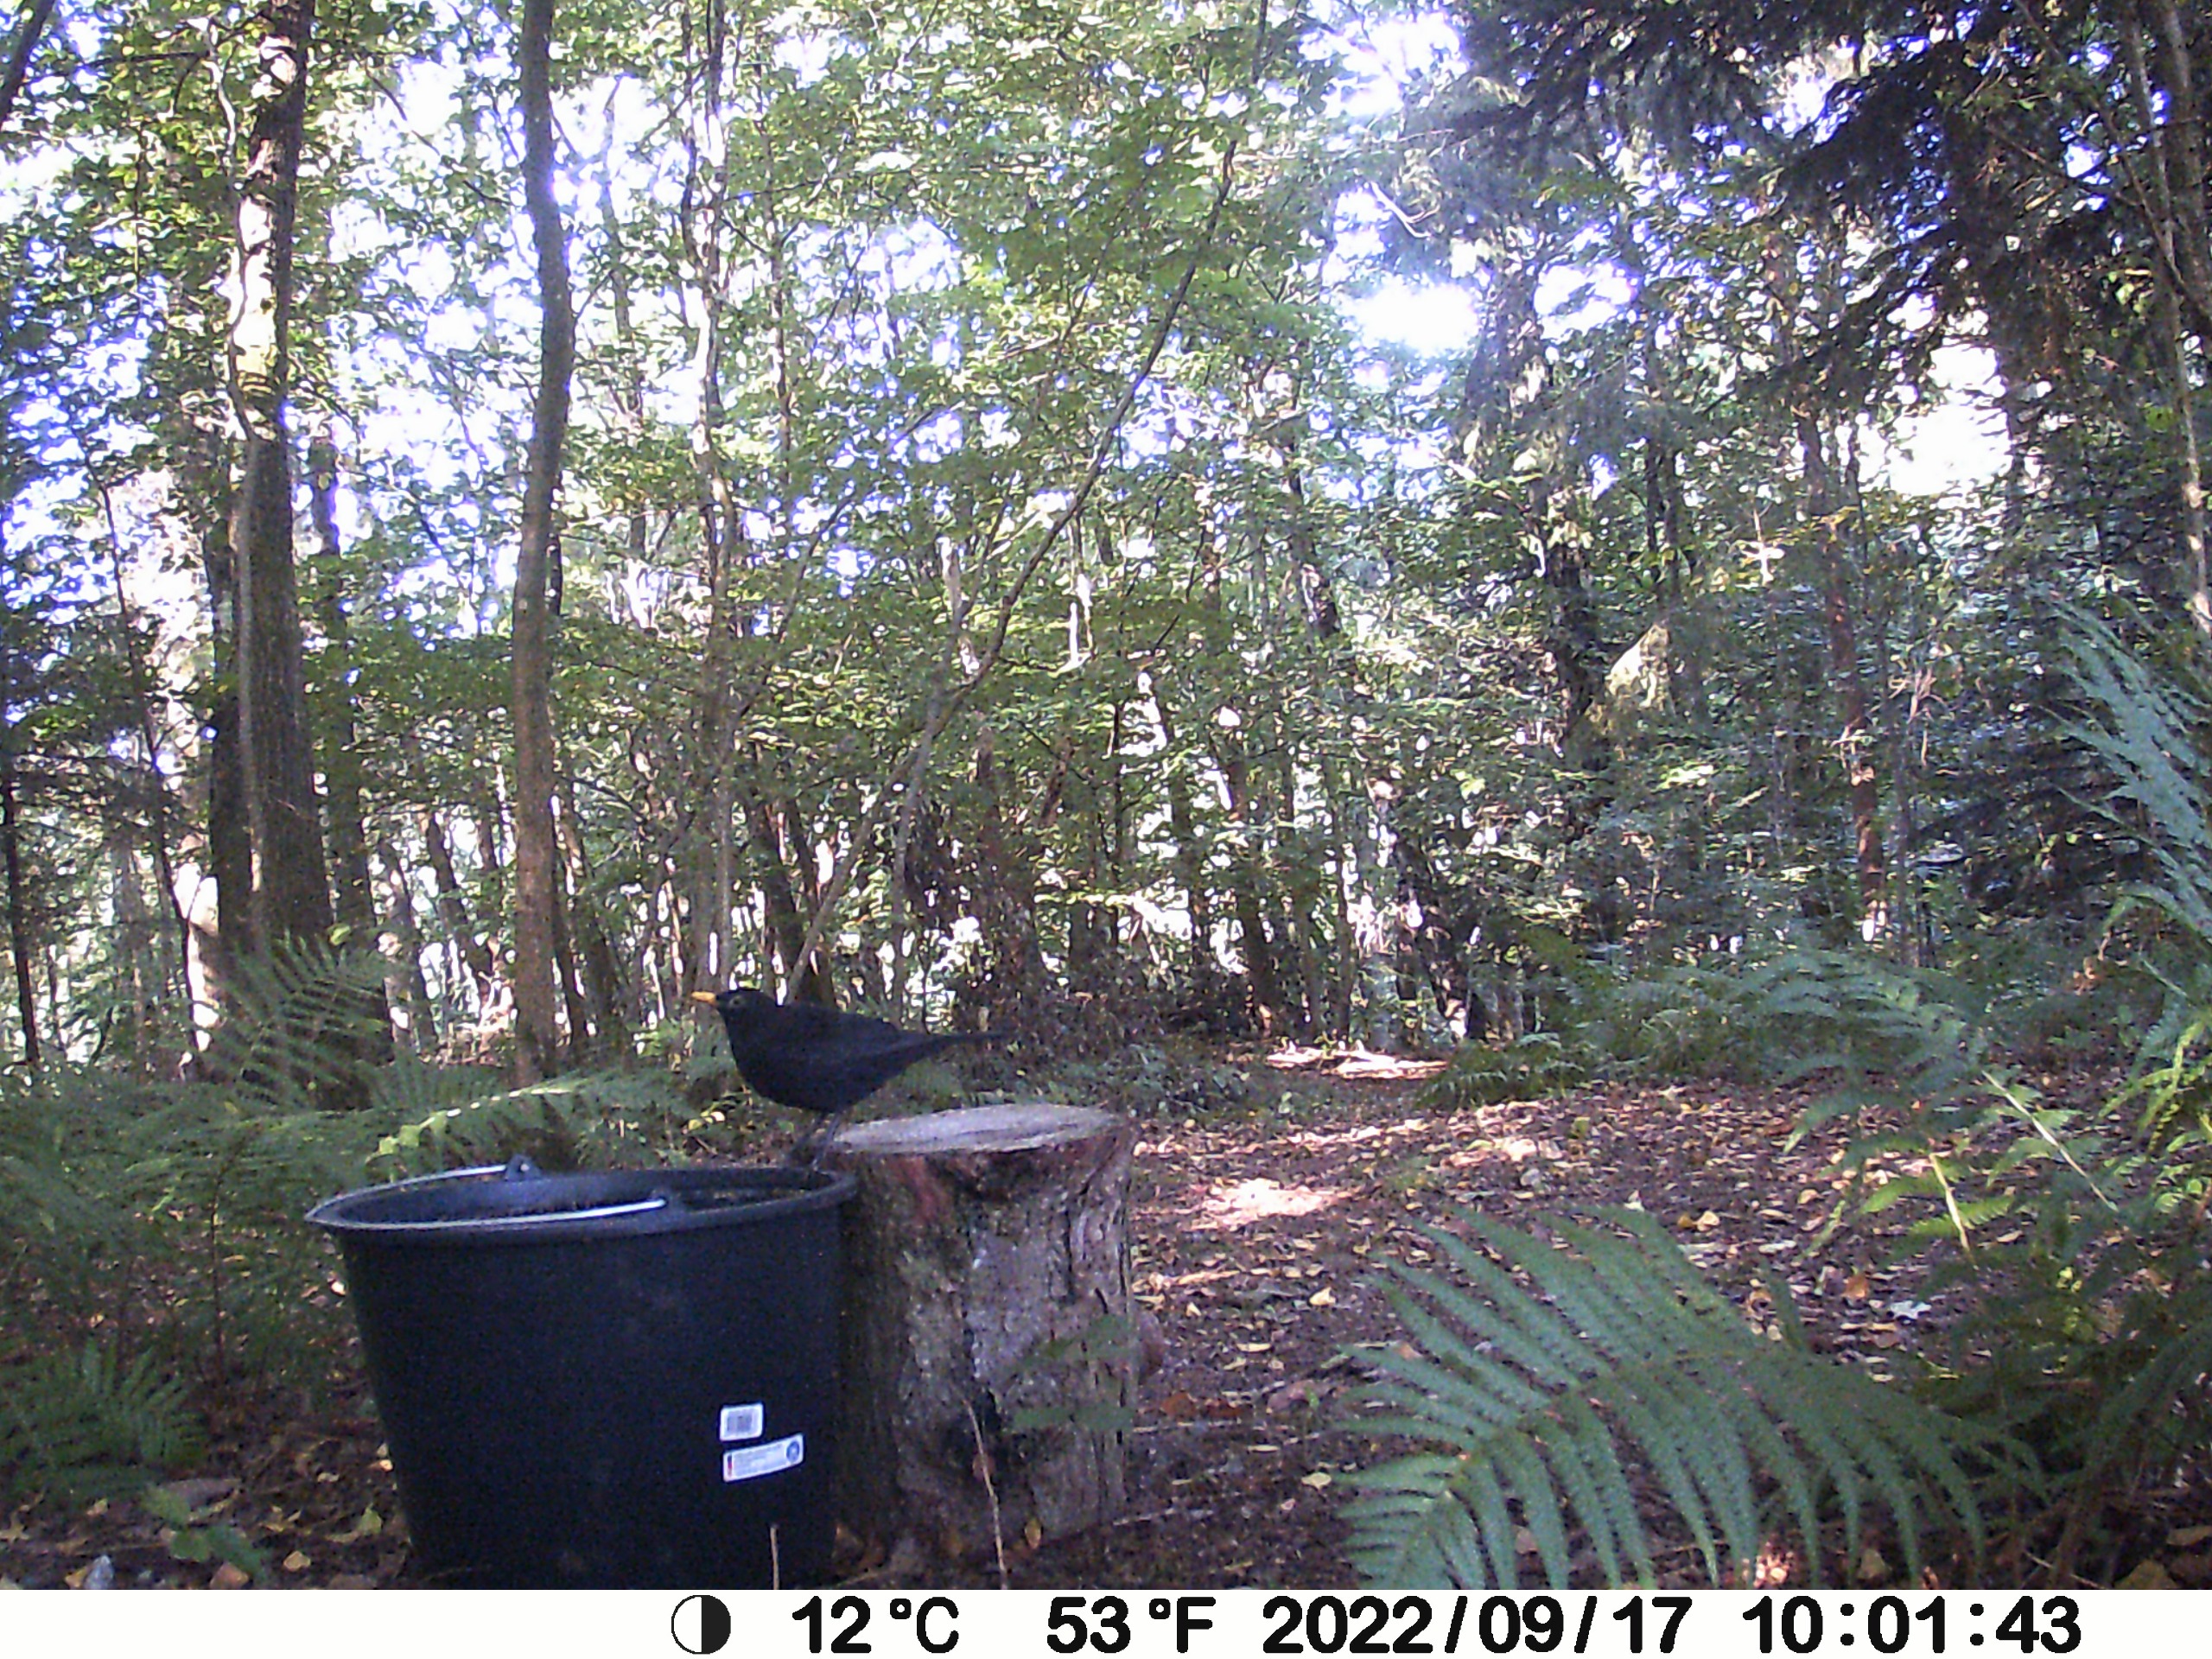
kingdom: Animalia
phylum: Chordata
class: Aves
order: Passeriformes
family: Turdidae
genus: Turdus
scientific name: Turdus merula
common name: Solsort
